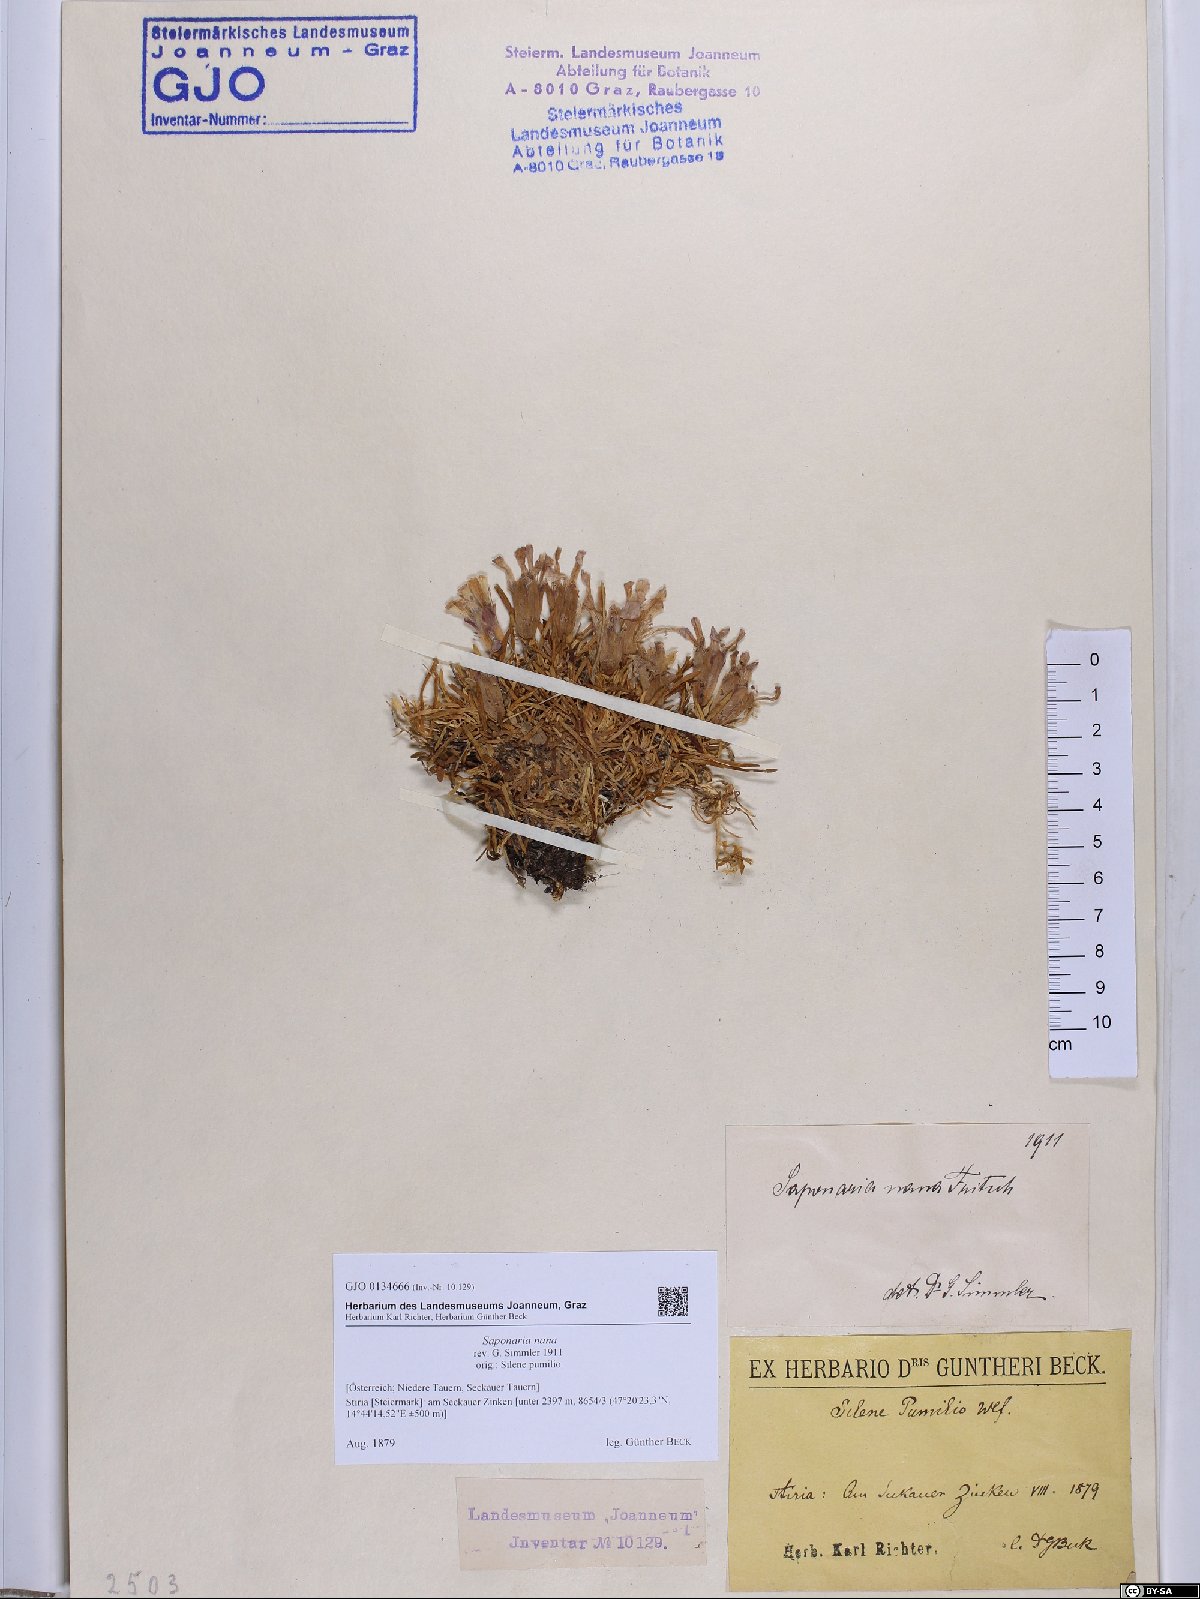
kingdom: Plantae
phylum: Tracheophyta
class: Magnoliopsida
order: Caryophyllales
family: Caryophyllaceae
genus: Saponaria
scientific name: Saponaria pumila
